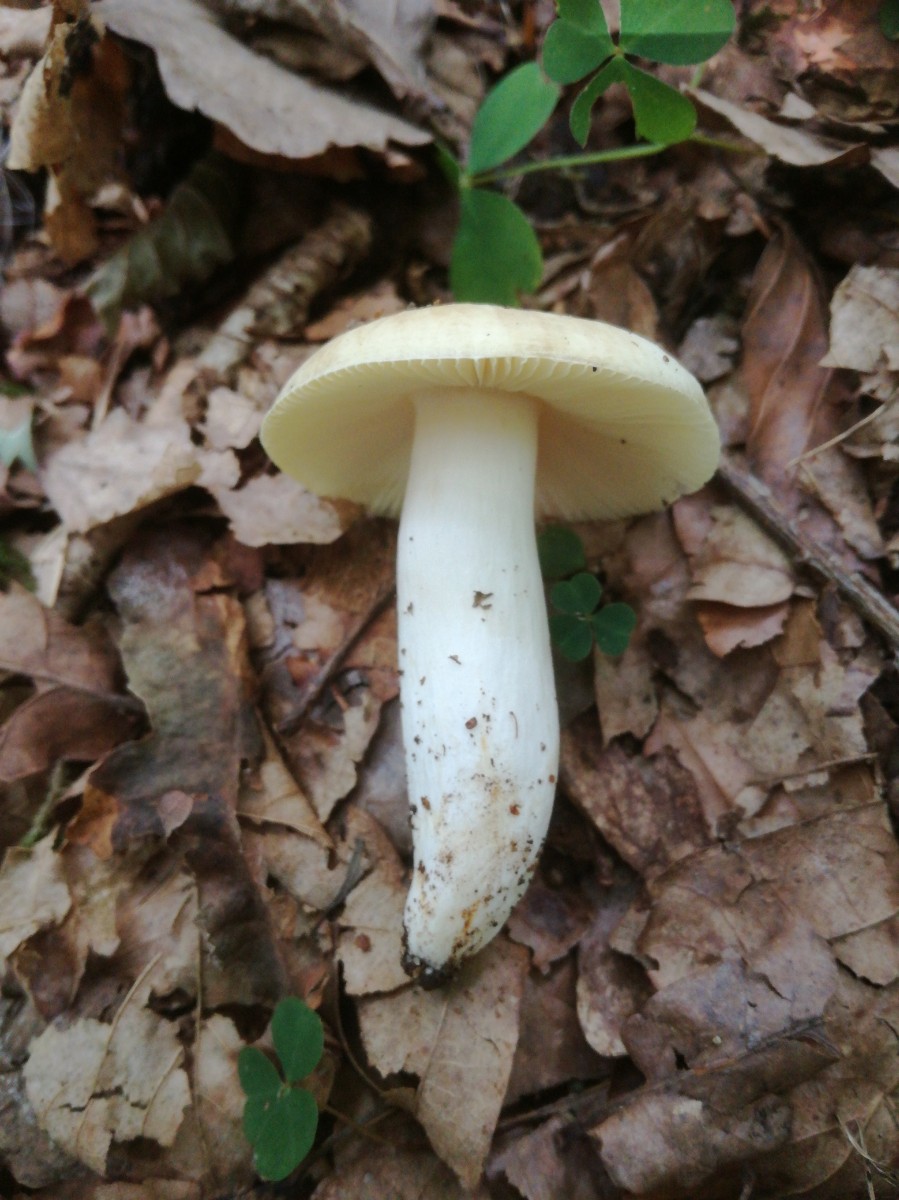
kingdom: Fungi
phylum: Basidiomycota
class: Agaricomycetes
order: Russulales
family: Russulaceae
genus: Russula
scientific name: Russula violeipes
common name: ferskengul skørhat
